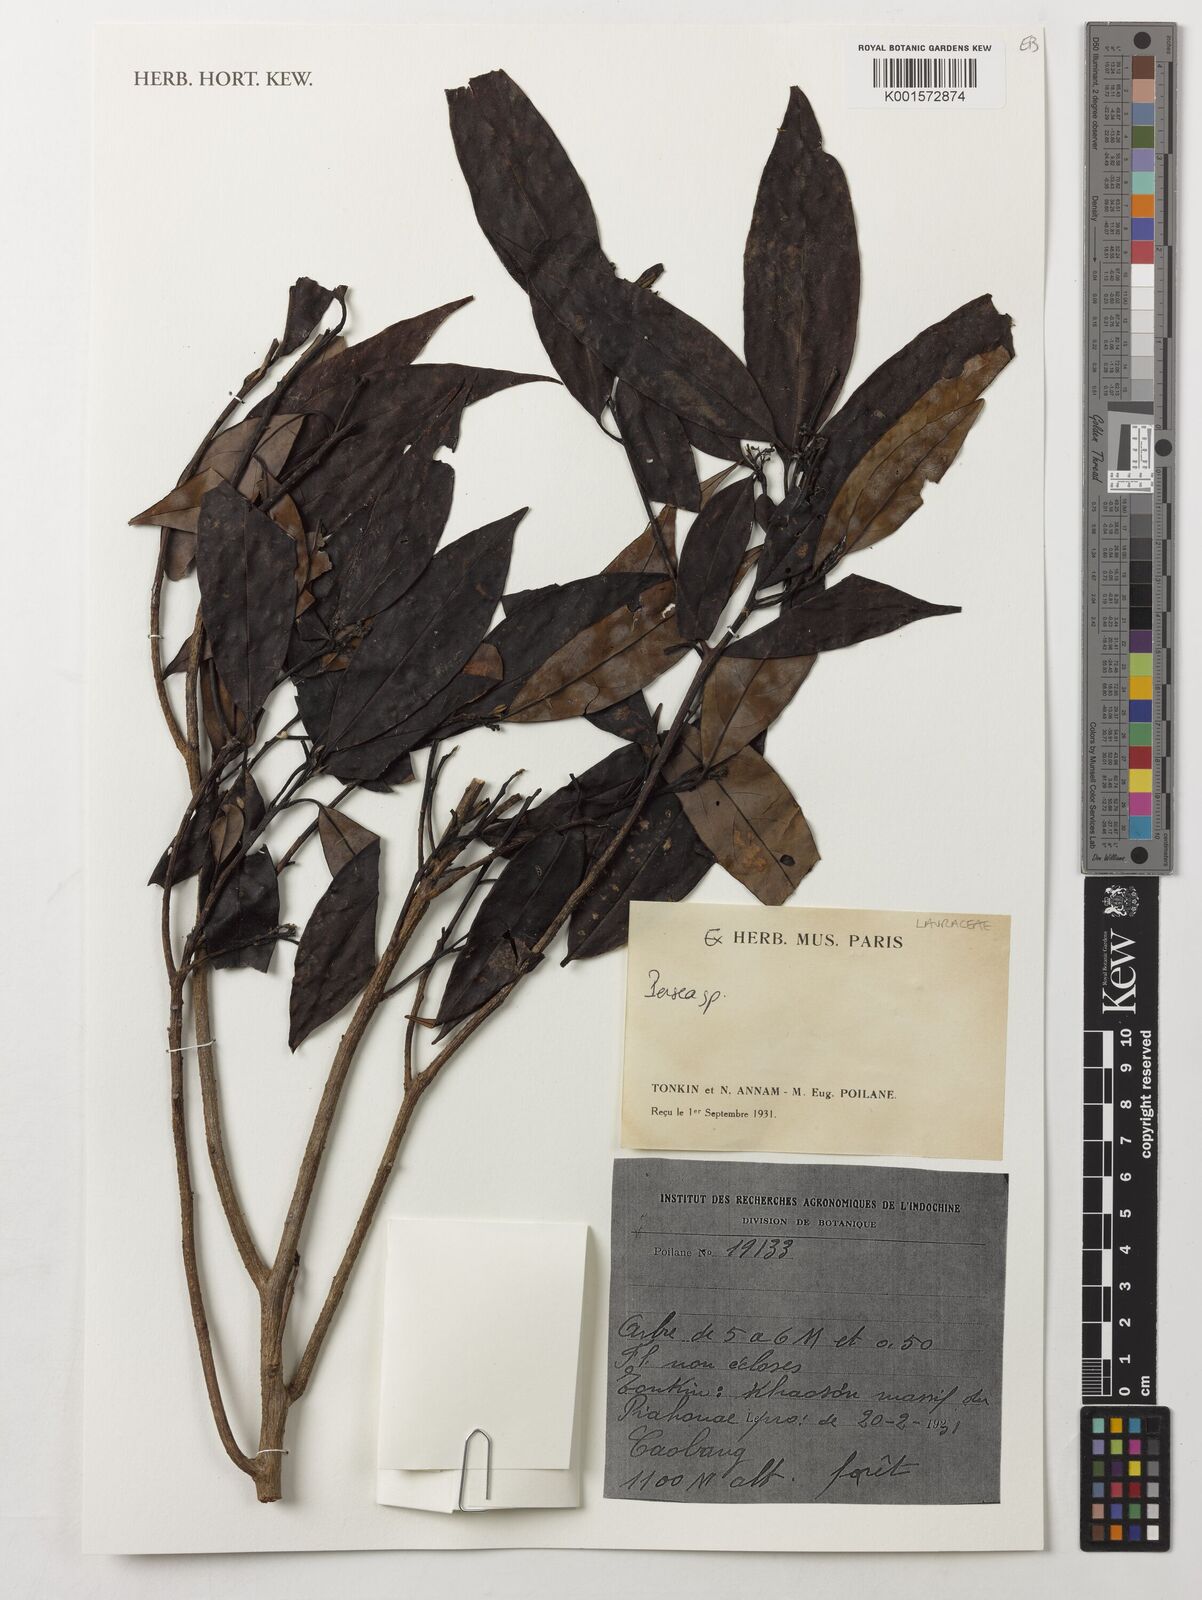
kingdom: Plantae
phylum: Tracheophyta
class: Magnoliopsida
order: Laurales
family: Lauraceae
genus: Persea
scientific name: Persea
